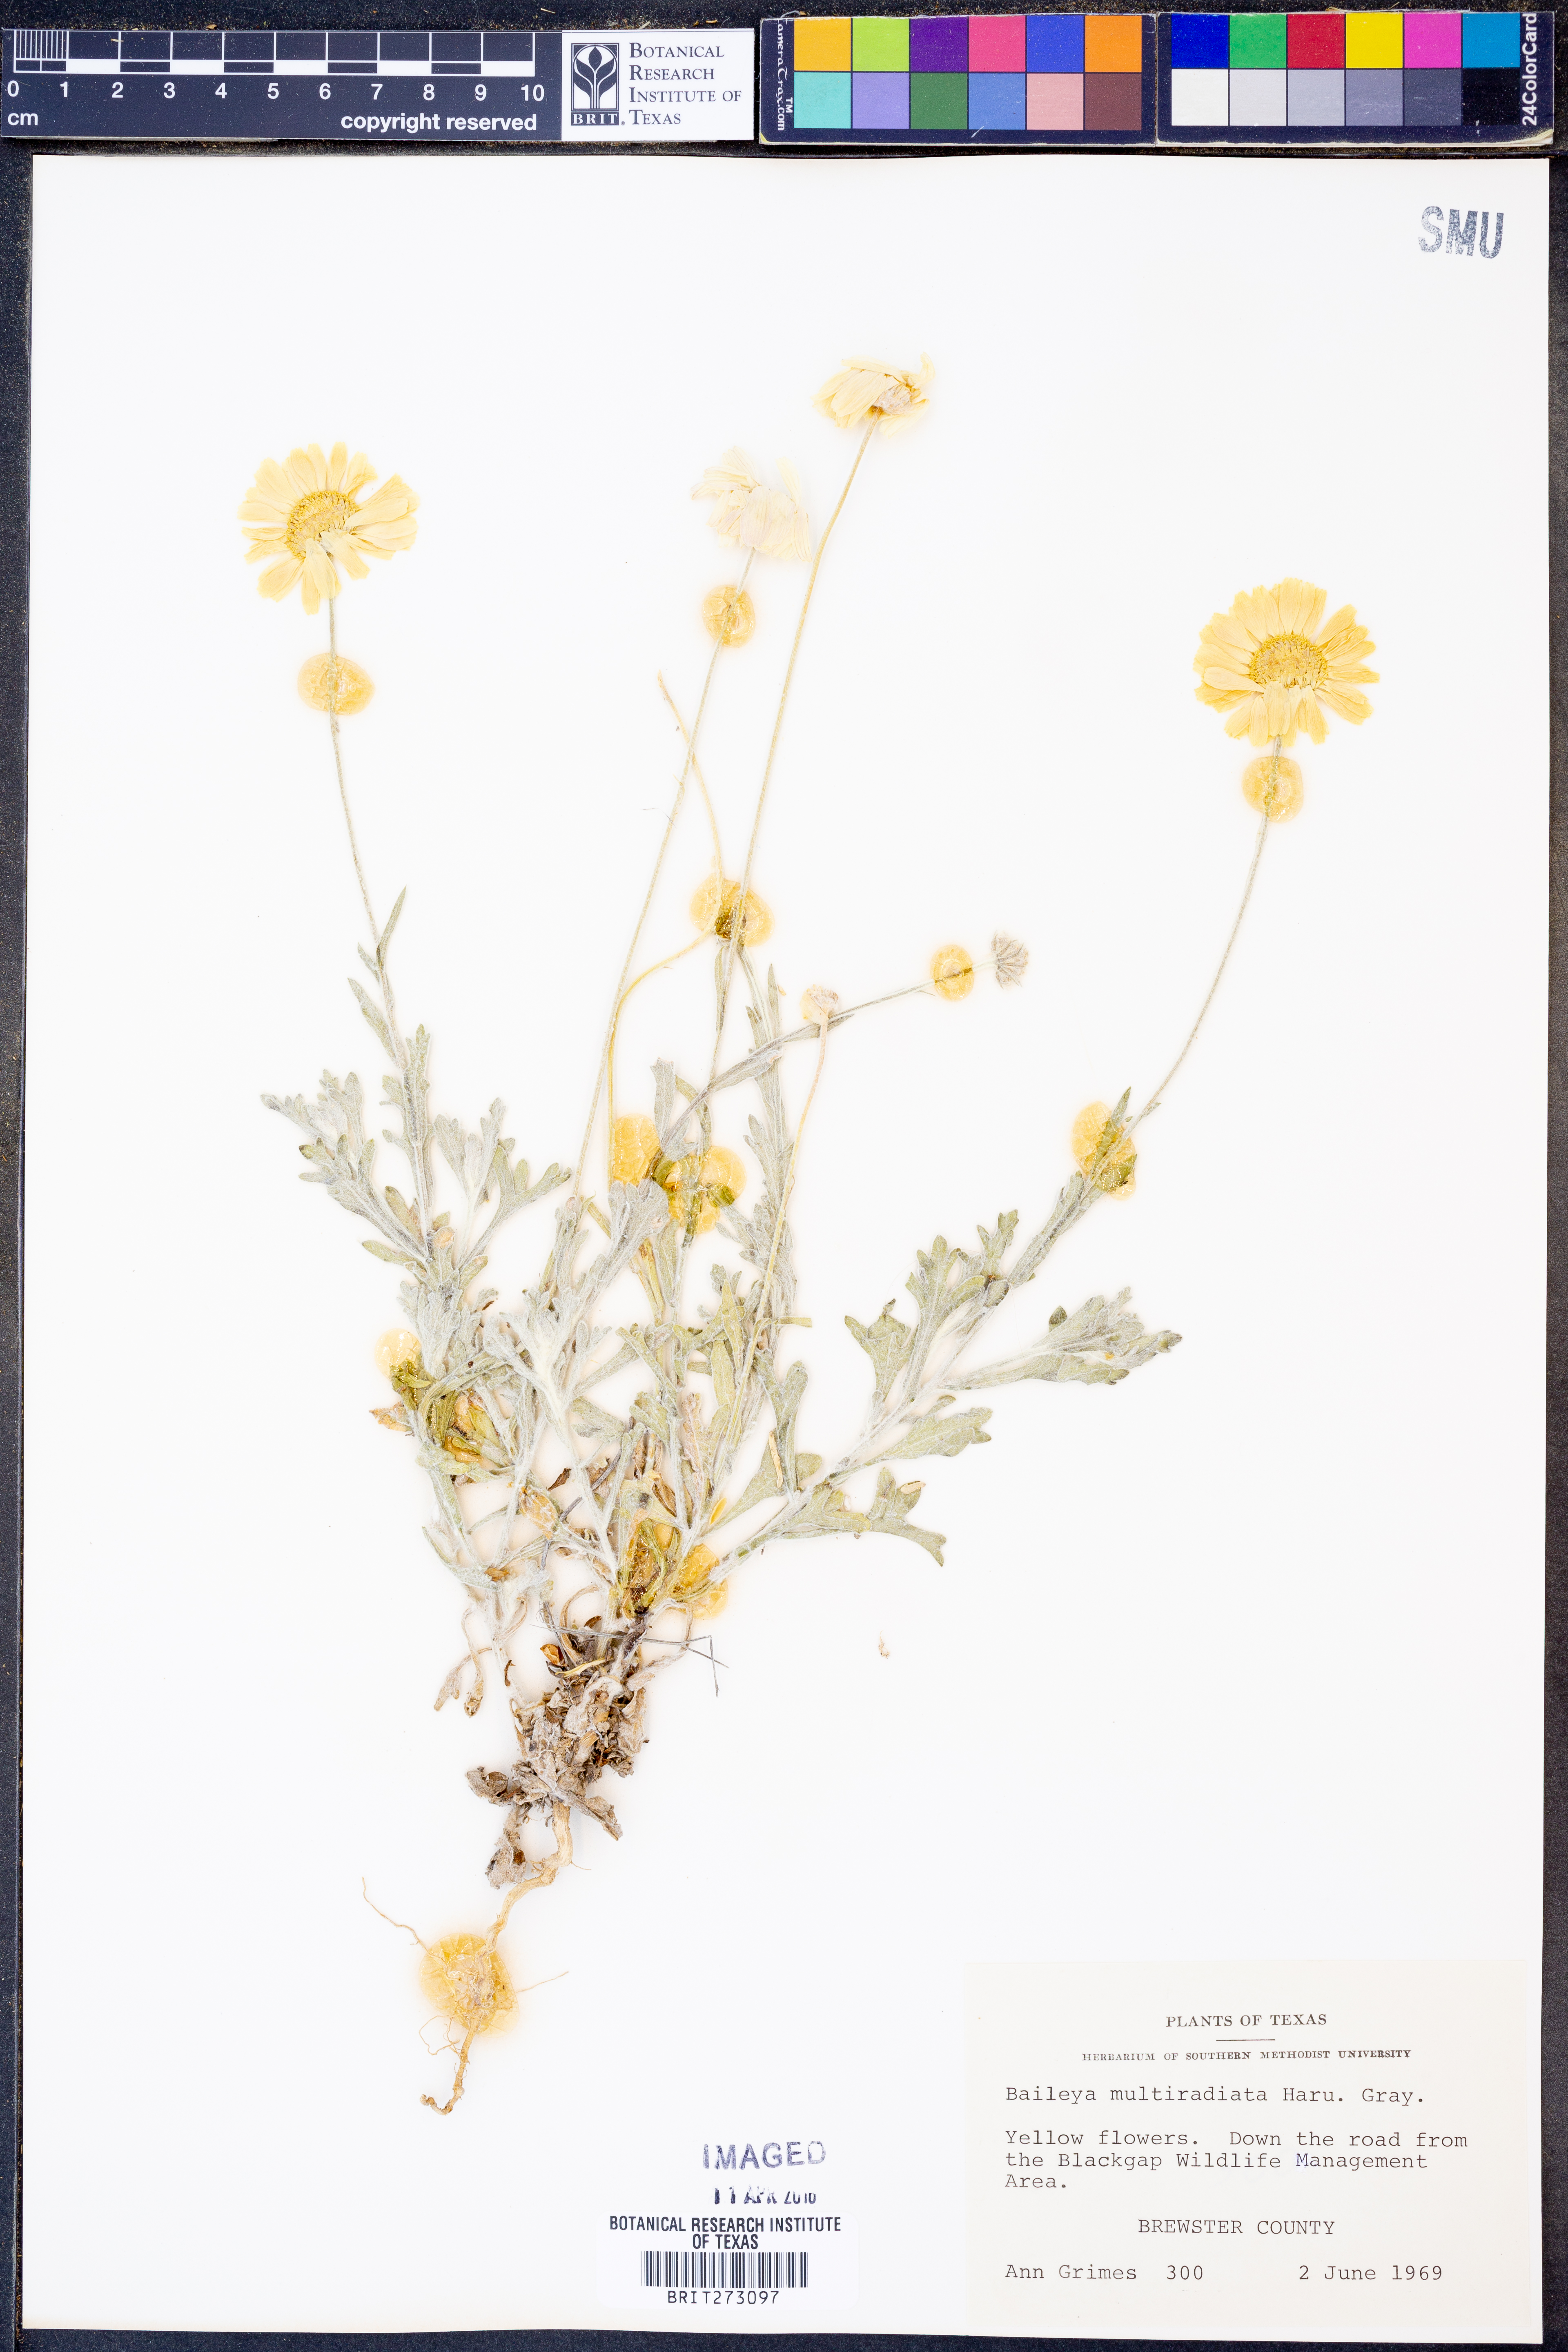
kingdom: Plantae
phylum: Tracheophyta
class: Magnoliopsida
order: Asterales
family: Asteraceae
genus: Baileya
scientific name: Baileya multiradiata
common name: Desert-marigold
